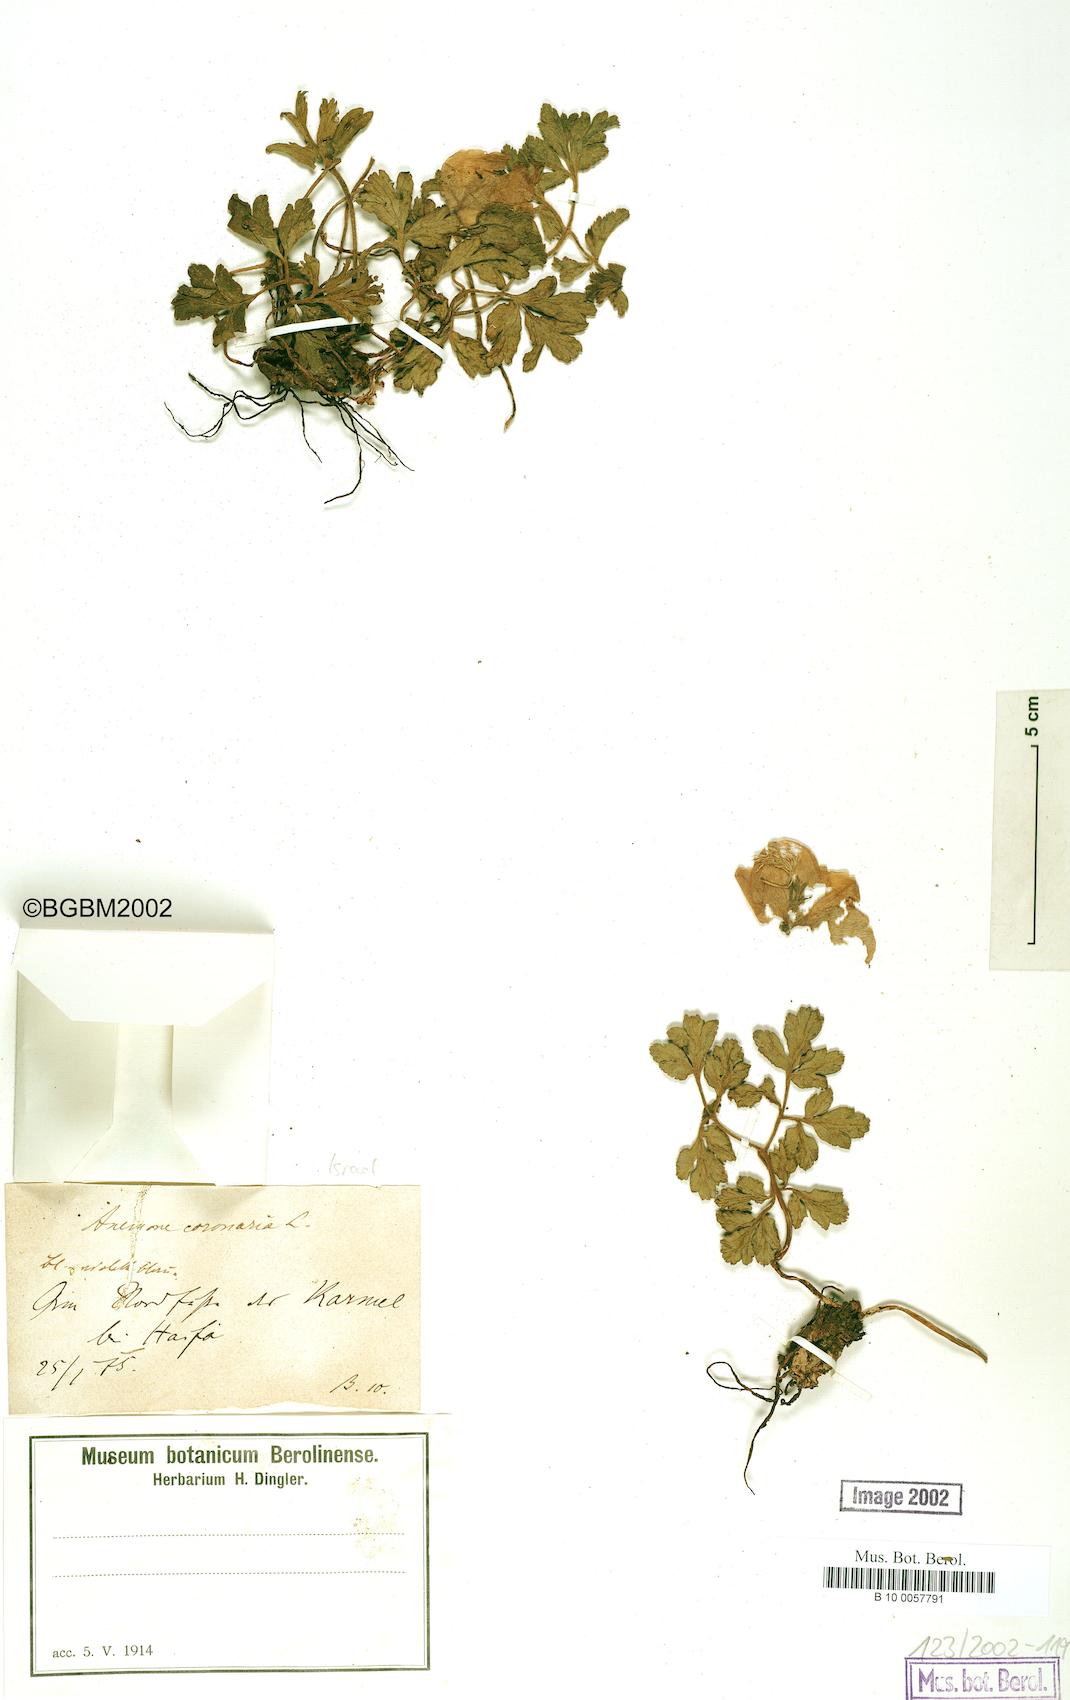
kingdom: Plantae
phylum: Tracheophyta
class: Magnoliopsida
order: Ranunculales
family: Ranunculaceae
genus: Anemone
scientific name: Anemone coronaria
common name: Poppy anemone
